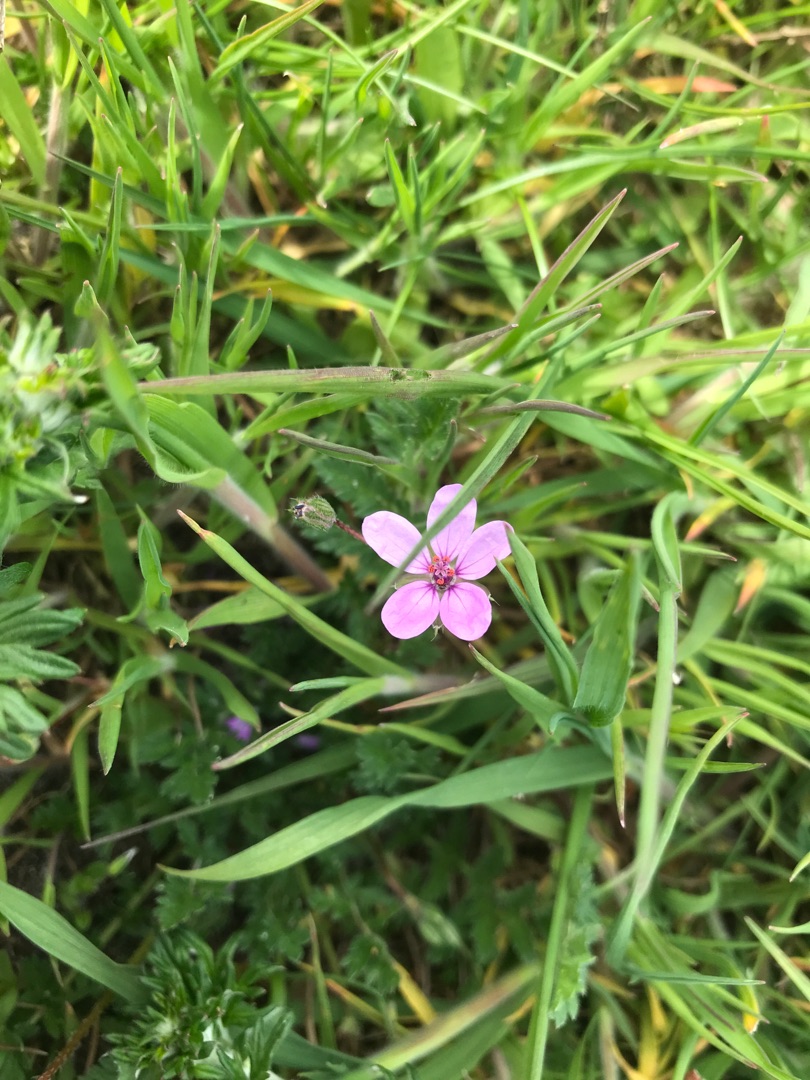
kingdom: Plantae
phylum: Tracheophyta
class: Magnoliopsida
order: Geraniales
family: Geraniaceae
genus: Erodium
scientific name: Erodium cicutarium
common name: Hejrenæb
